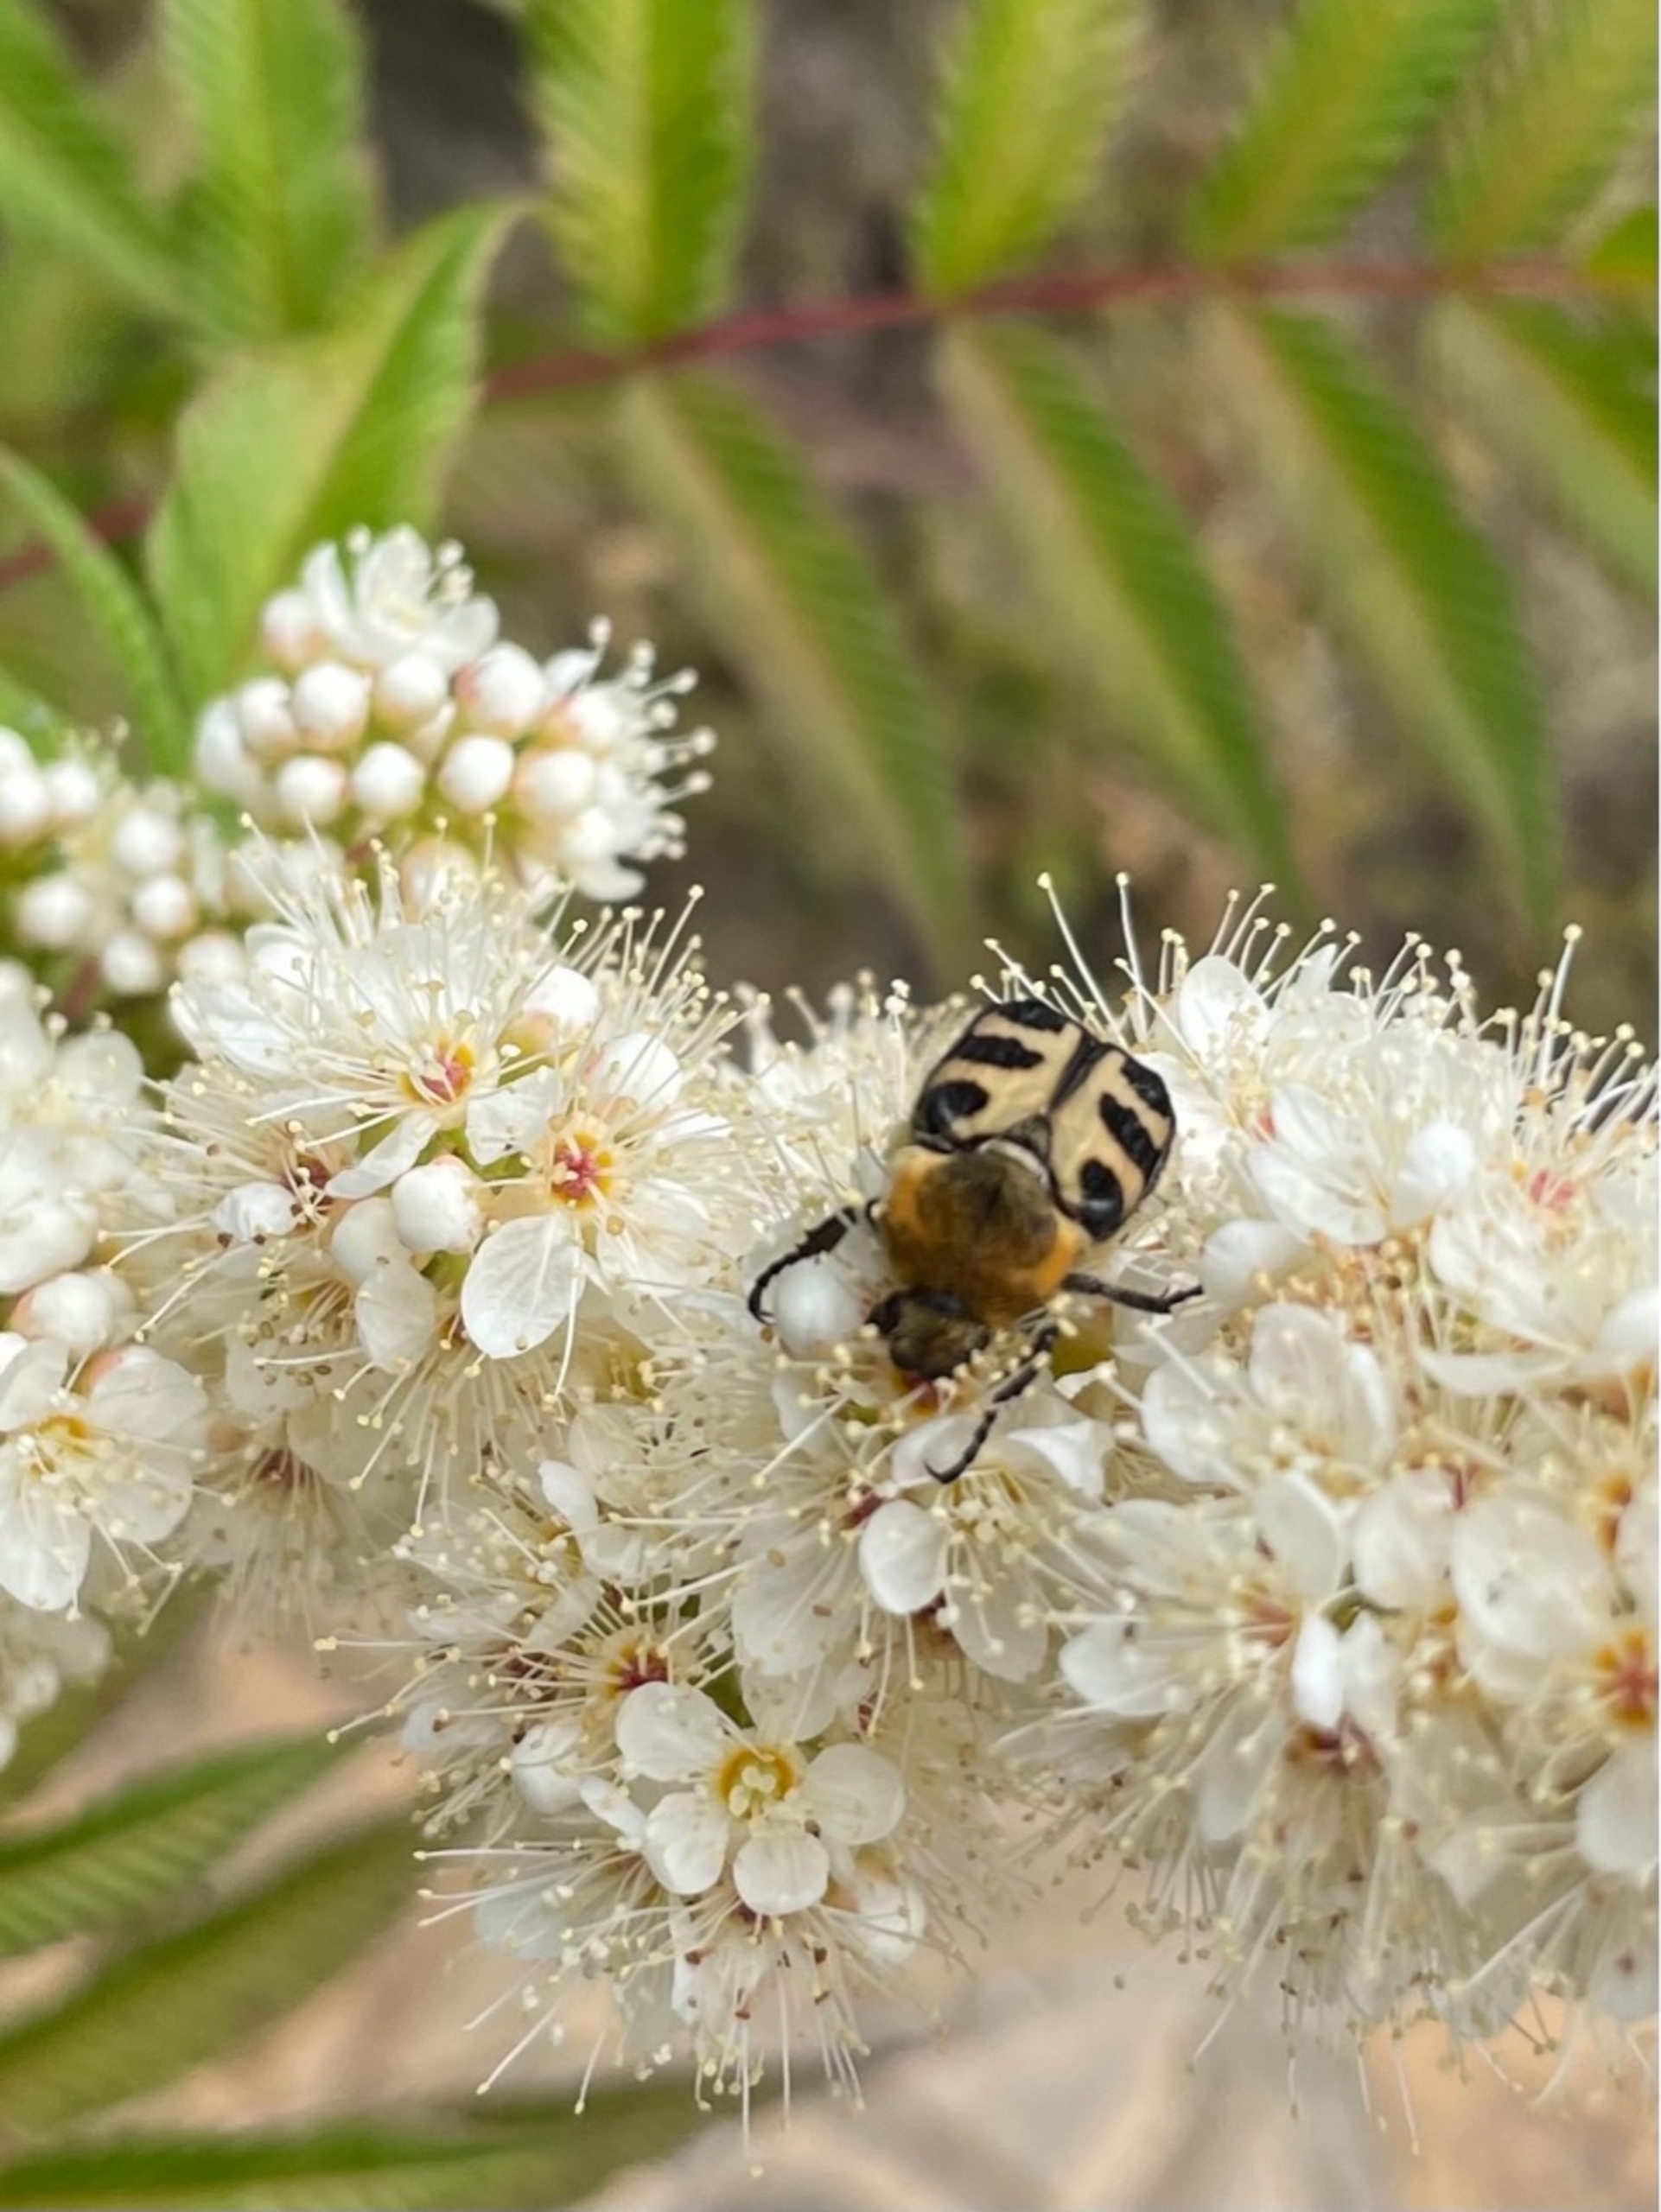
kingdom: Animalia
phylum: Arthropoda
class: Insecta
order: Coleoptera
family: Scarabaeidae
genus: Trichius
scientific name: Trichius gallicus
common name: Lille humlebille
